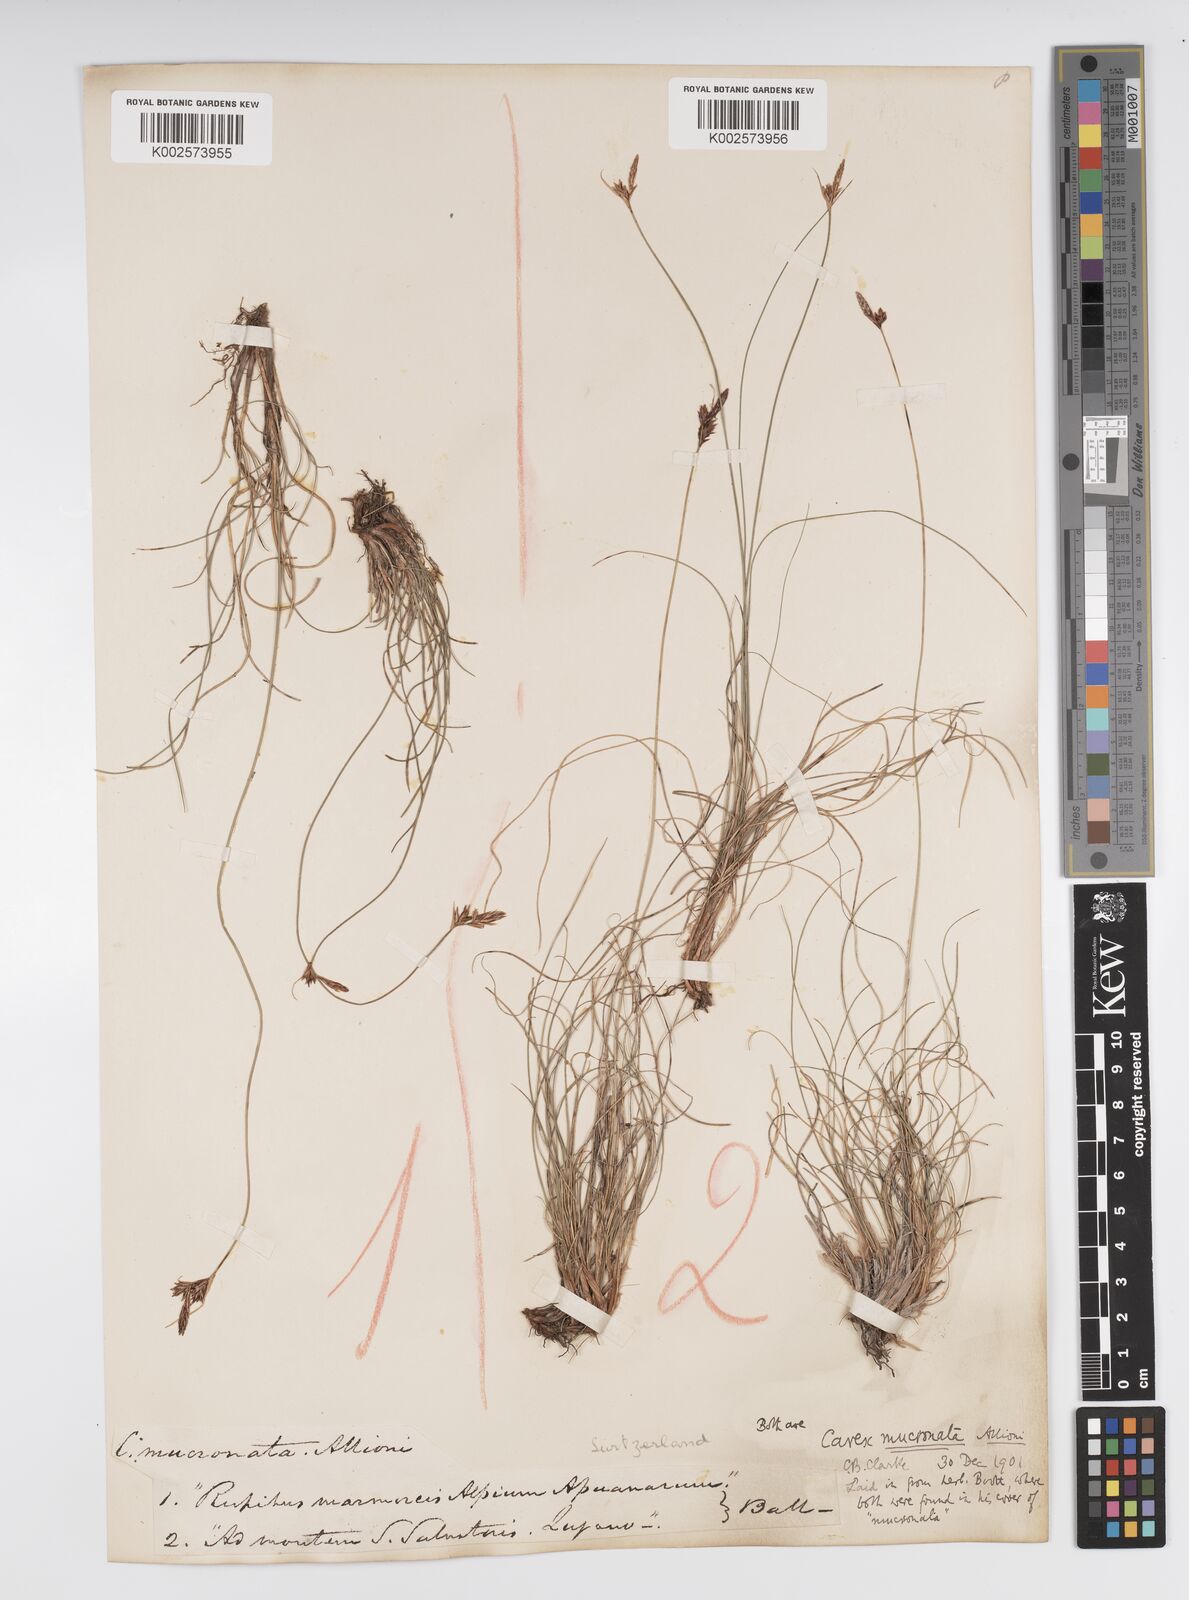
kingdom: Plantae
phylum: Tracheophyta
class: Liliopsida
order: Poales
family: Cyperaceae
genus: Carex
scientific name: Carex mucronata
